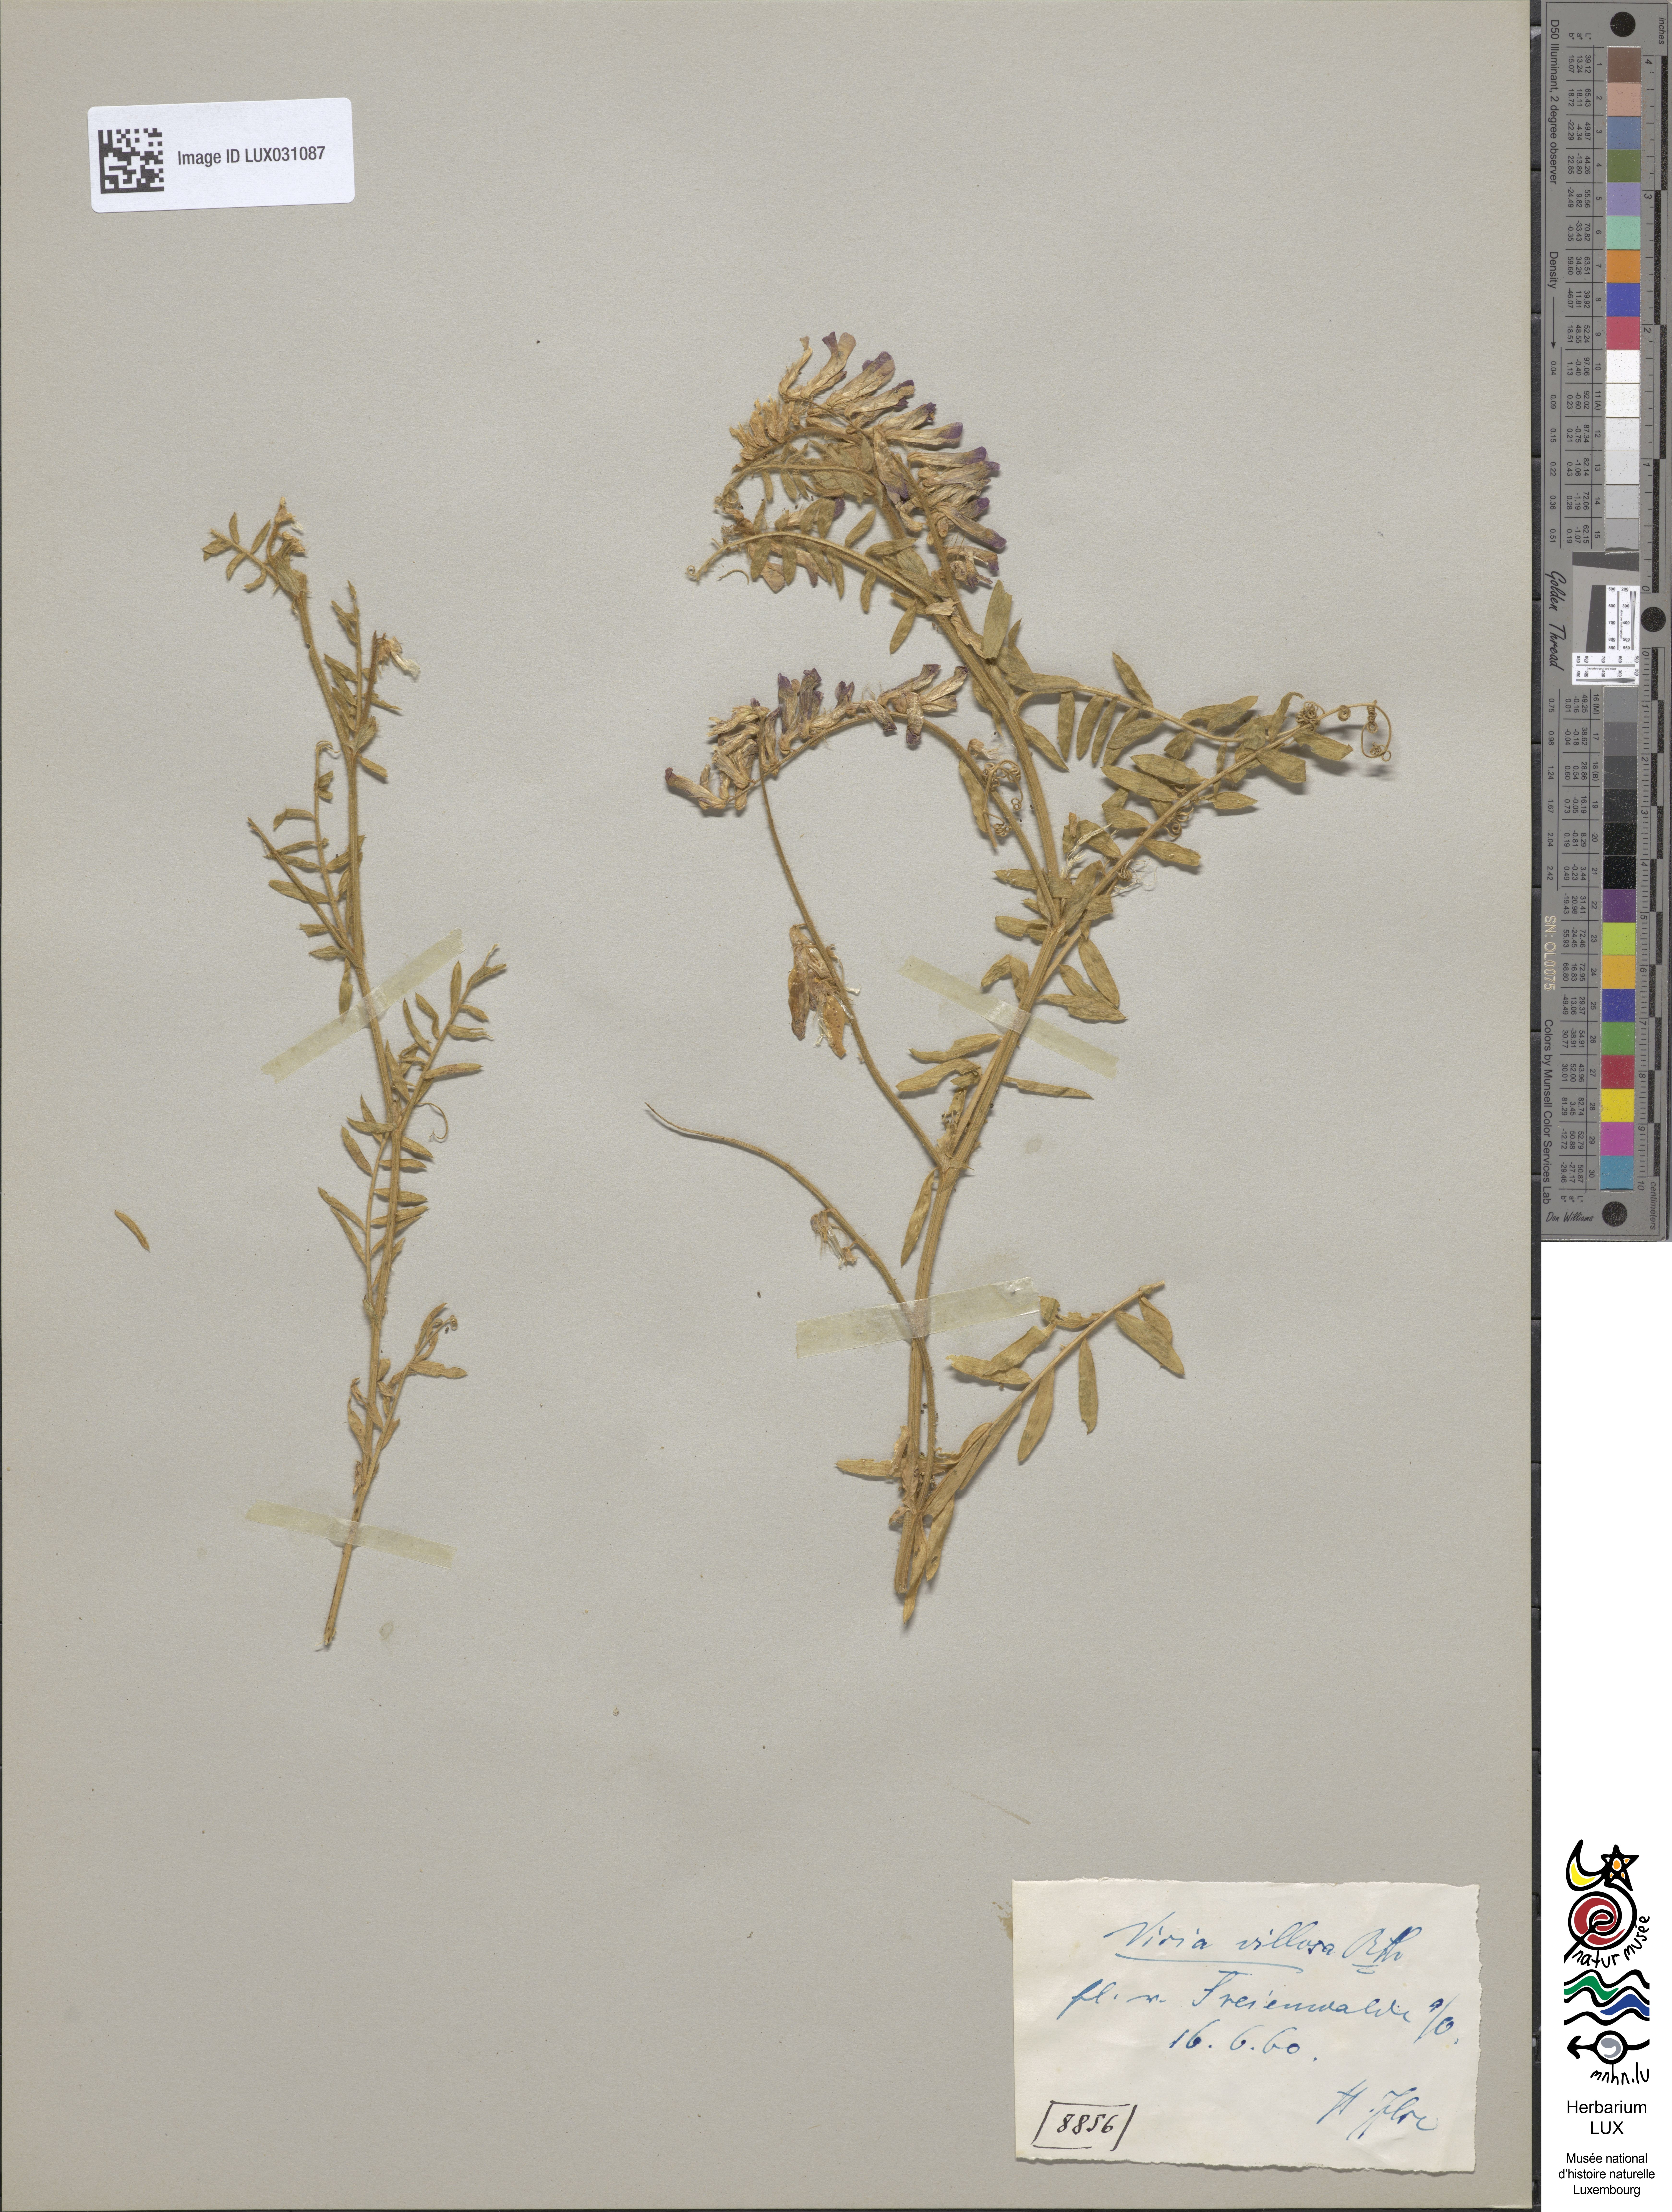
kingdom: Plantae
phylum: Tracheophyta
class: Magnoliopsida
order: Fabales
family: Fabaceae
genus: Vicia
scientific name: Vicia villosa
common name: Fodder vetch
